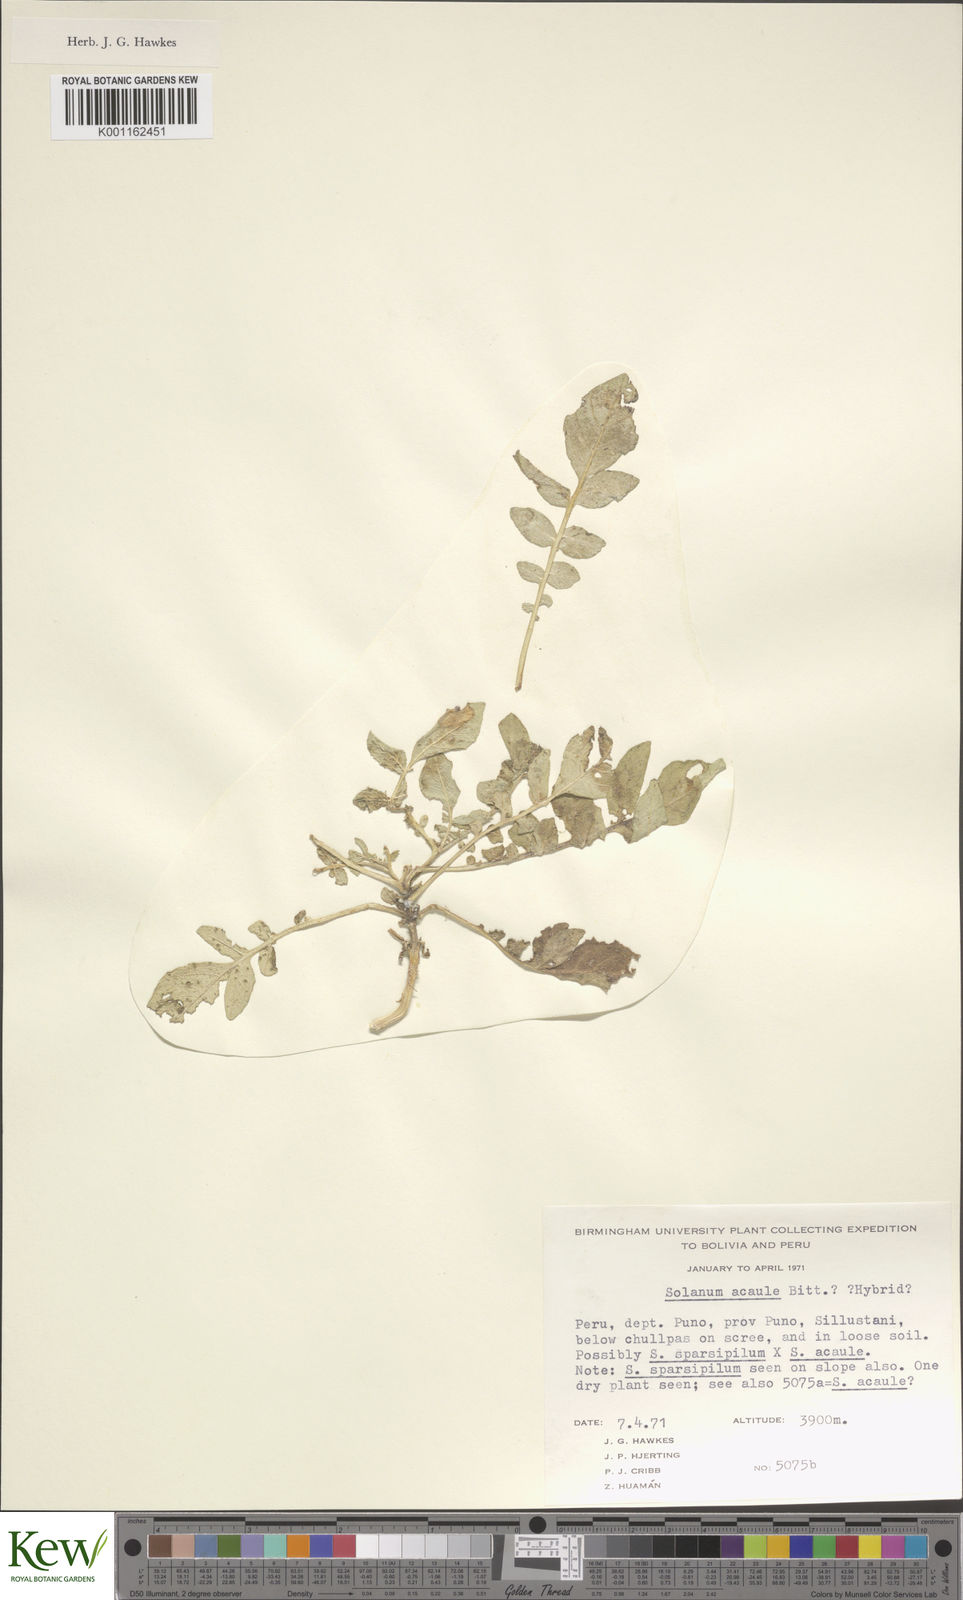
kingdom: Plantae
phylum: Tracheophyta
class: Magnoliopsida
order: Solanales
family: Solanaceae
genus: Solanum
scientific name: Solanum acaule
